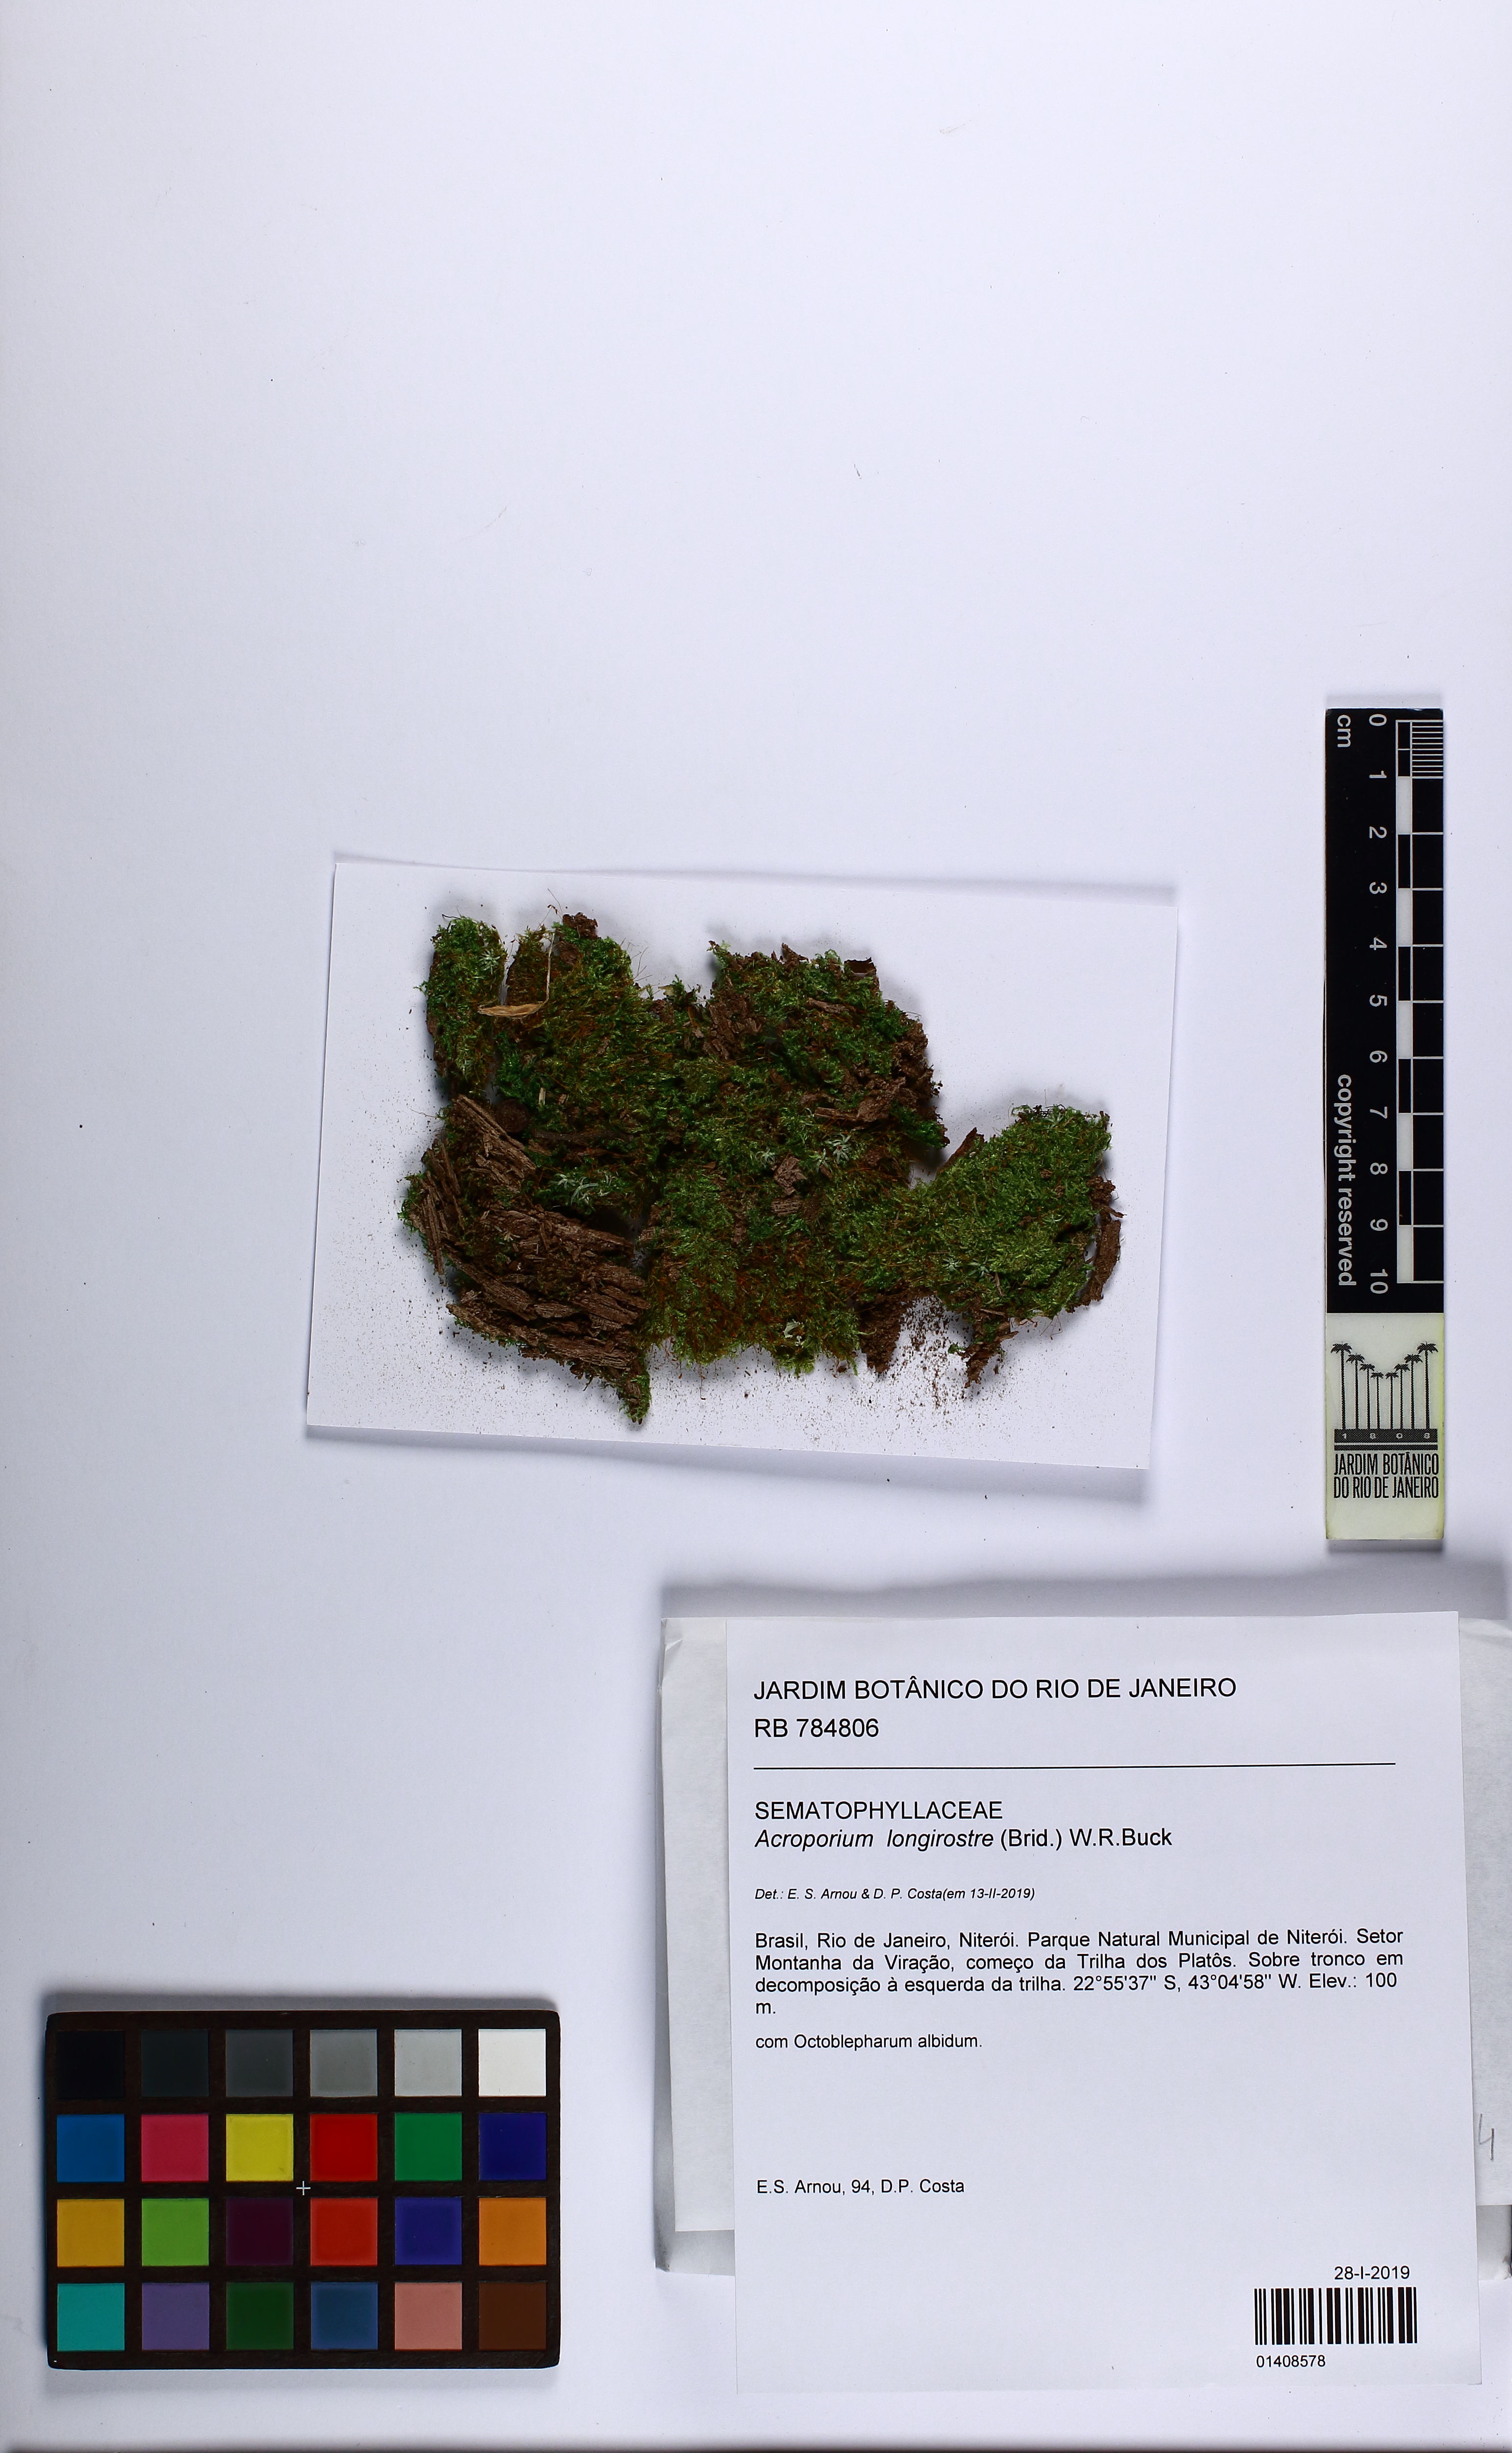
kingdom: Plantae
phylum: Bryophyta
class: Bryopsida
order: Hypnales
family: Sematophyllaceae
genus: Acroporium
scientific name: Acroporium longirostre
